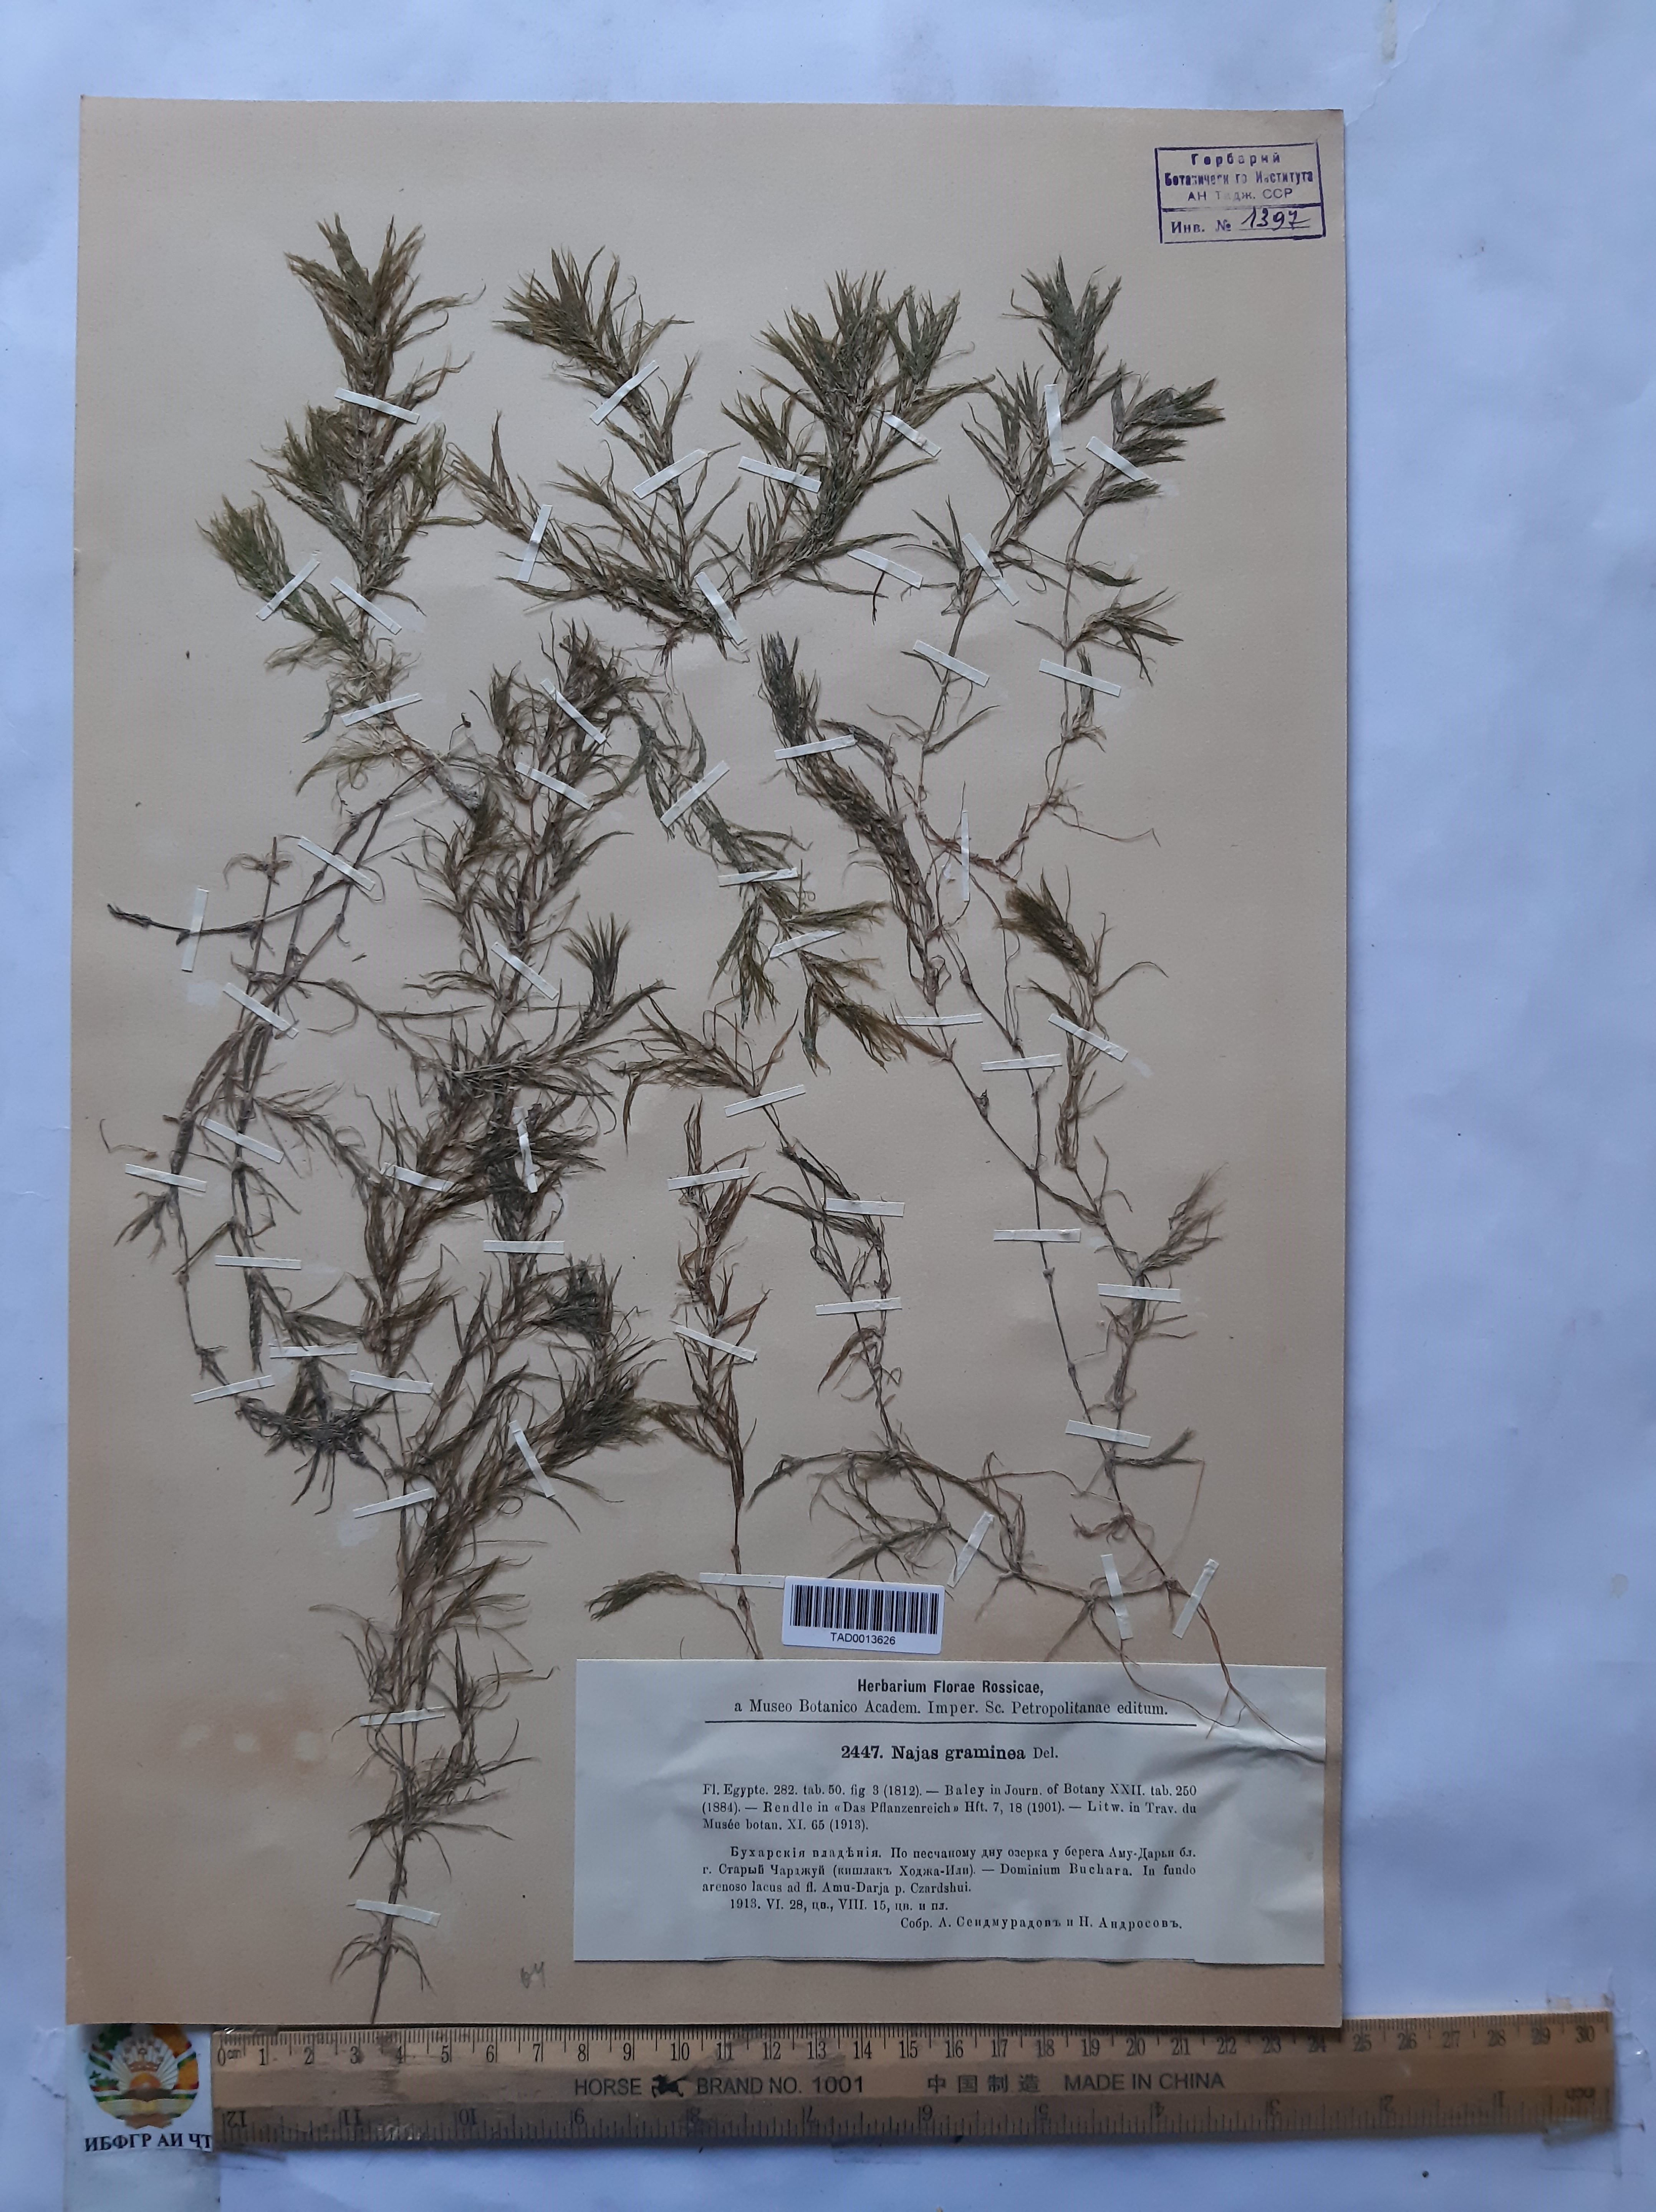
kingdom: Plantae
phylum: Tracheophyta
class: Liliopsida
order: Alismatales
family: Hydrocharitaceae
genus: Najas
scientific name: Najas graminea
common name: Ricefield waternymph
